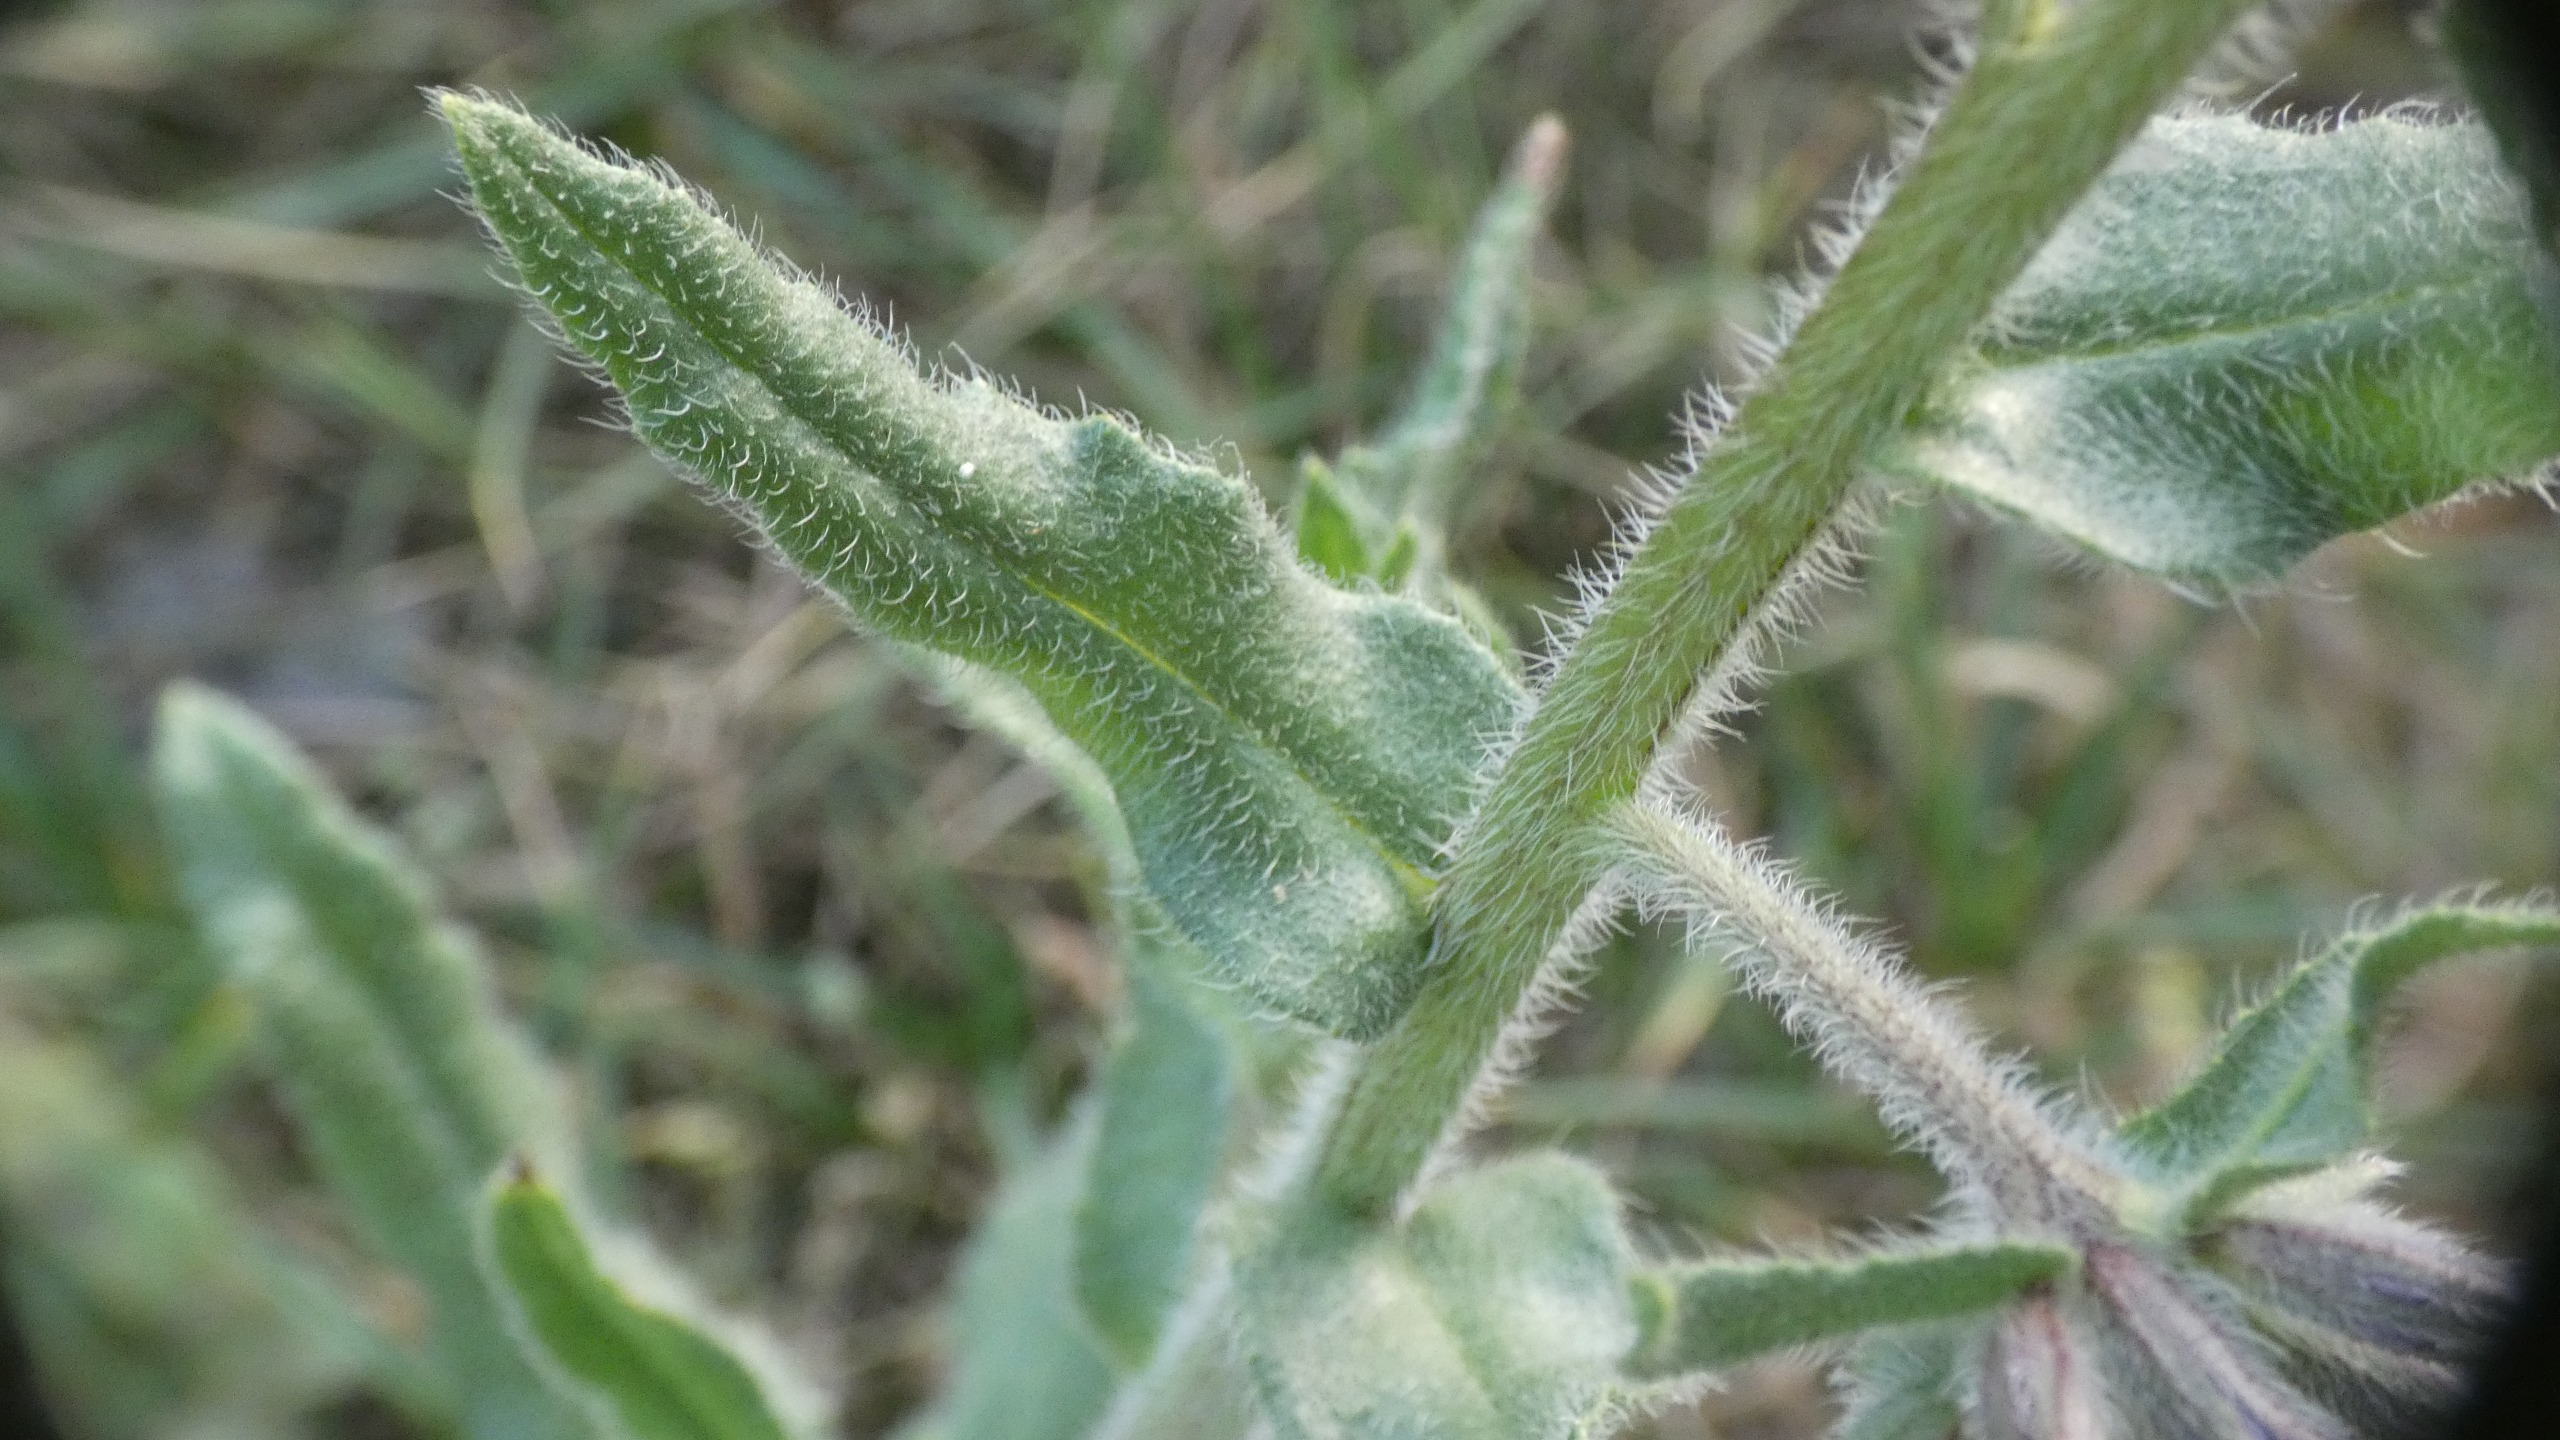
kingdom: Plantae
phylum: Tracheophyta
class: Magnoliopsida
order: Boraginales
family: Boraginaceae
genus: Anchusa
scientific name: Anchusa officinalis
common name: Læge-oksetunge
